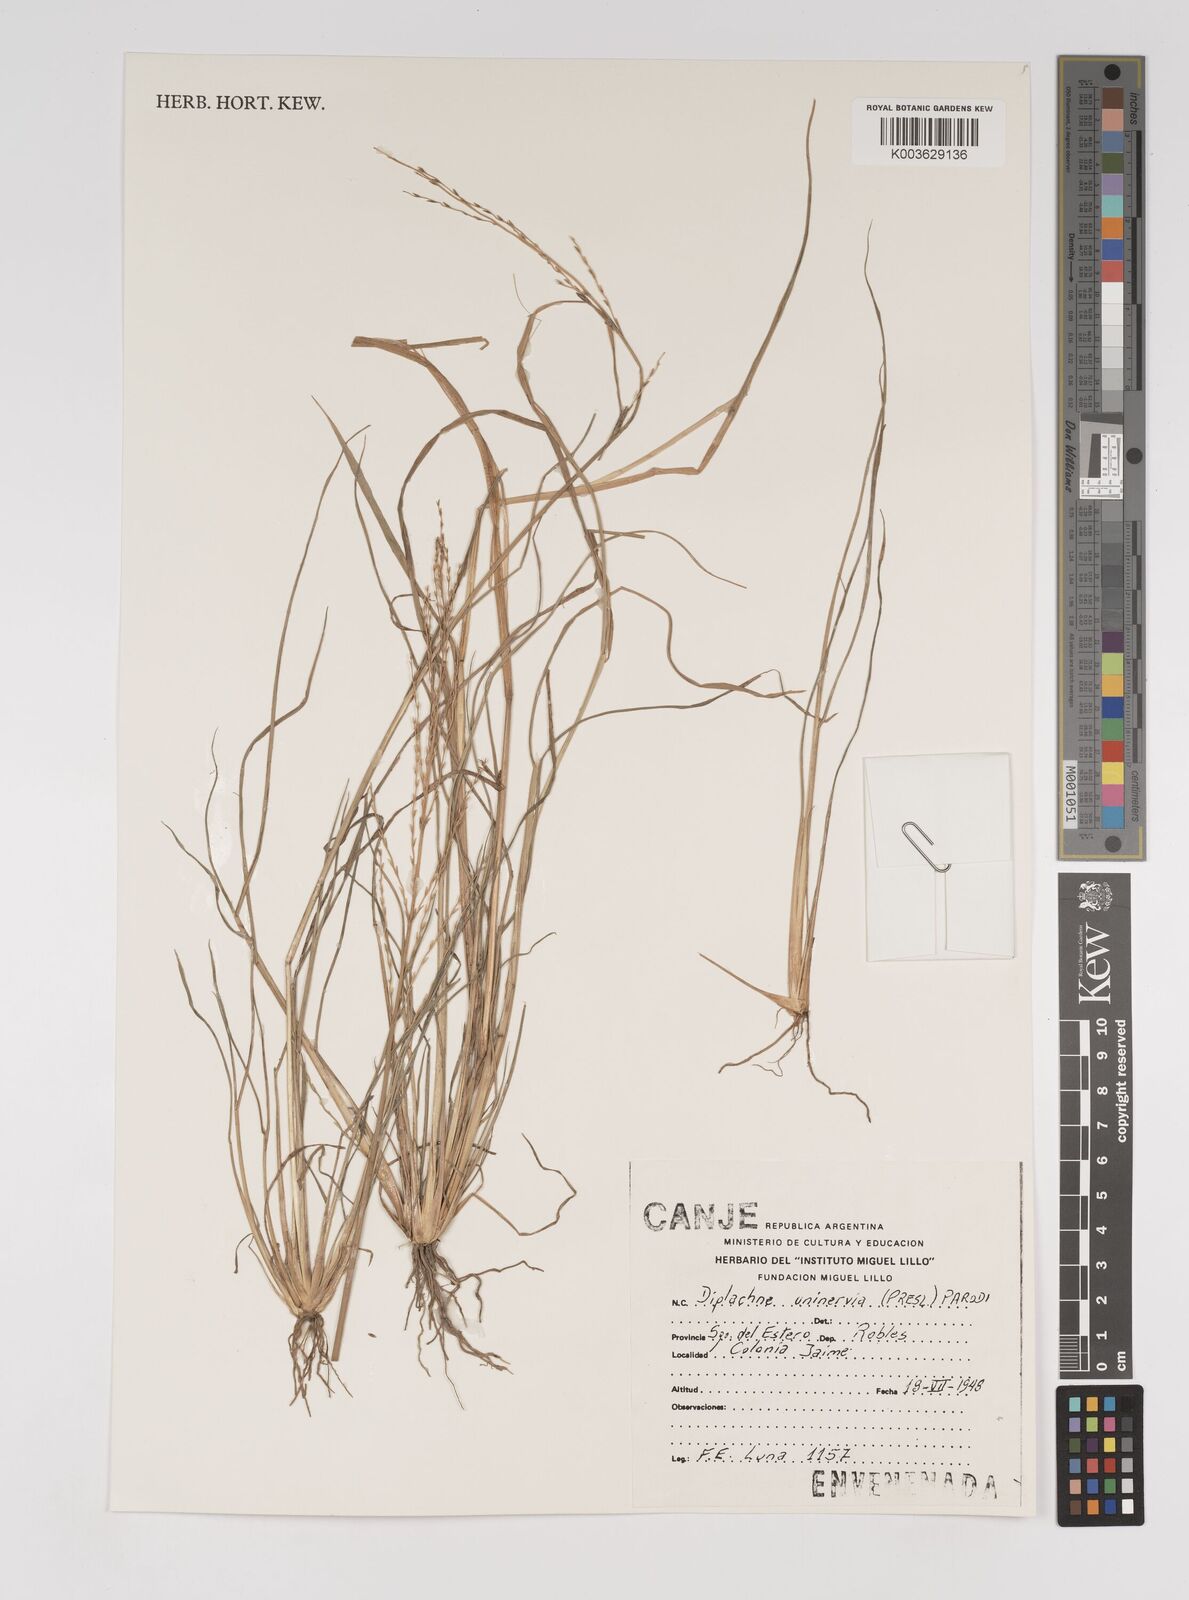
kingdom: Plantae
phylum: Tracheophyta
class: Liliopsida
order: Poales
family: Poaceae
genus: Diplachne
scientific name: Diplachne fusca
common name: Brown beetle grass
